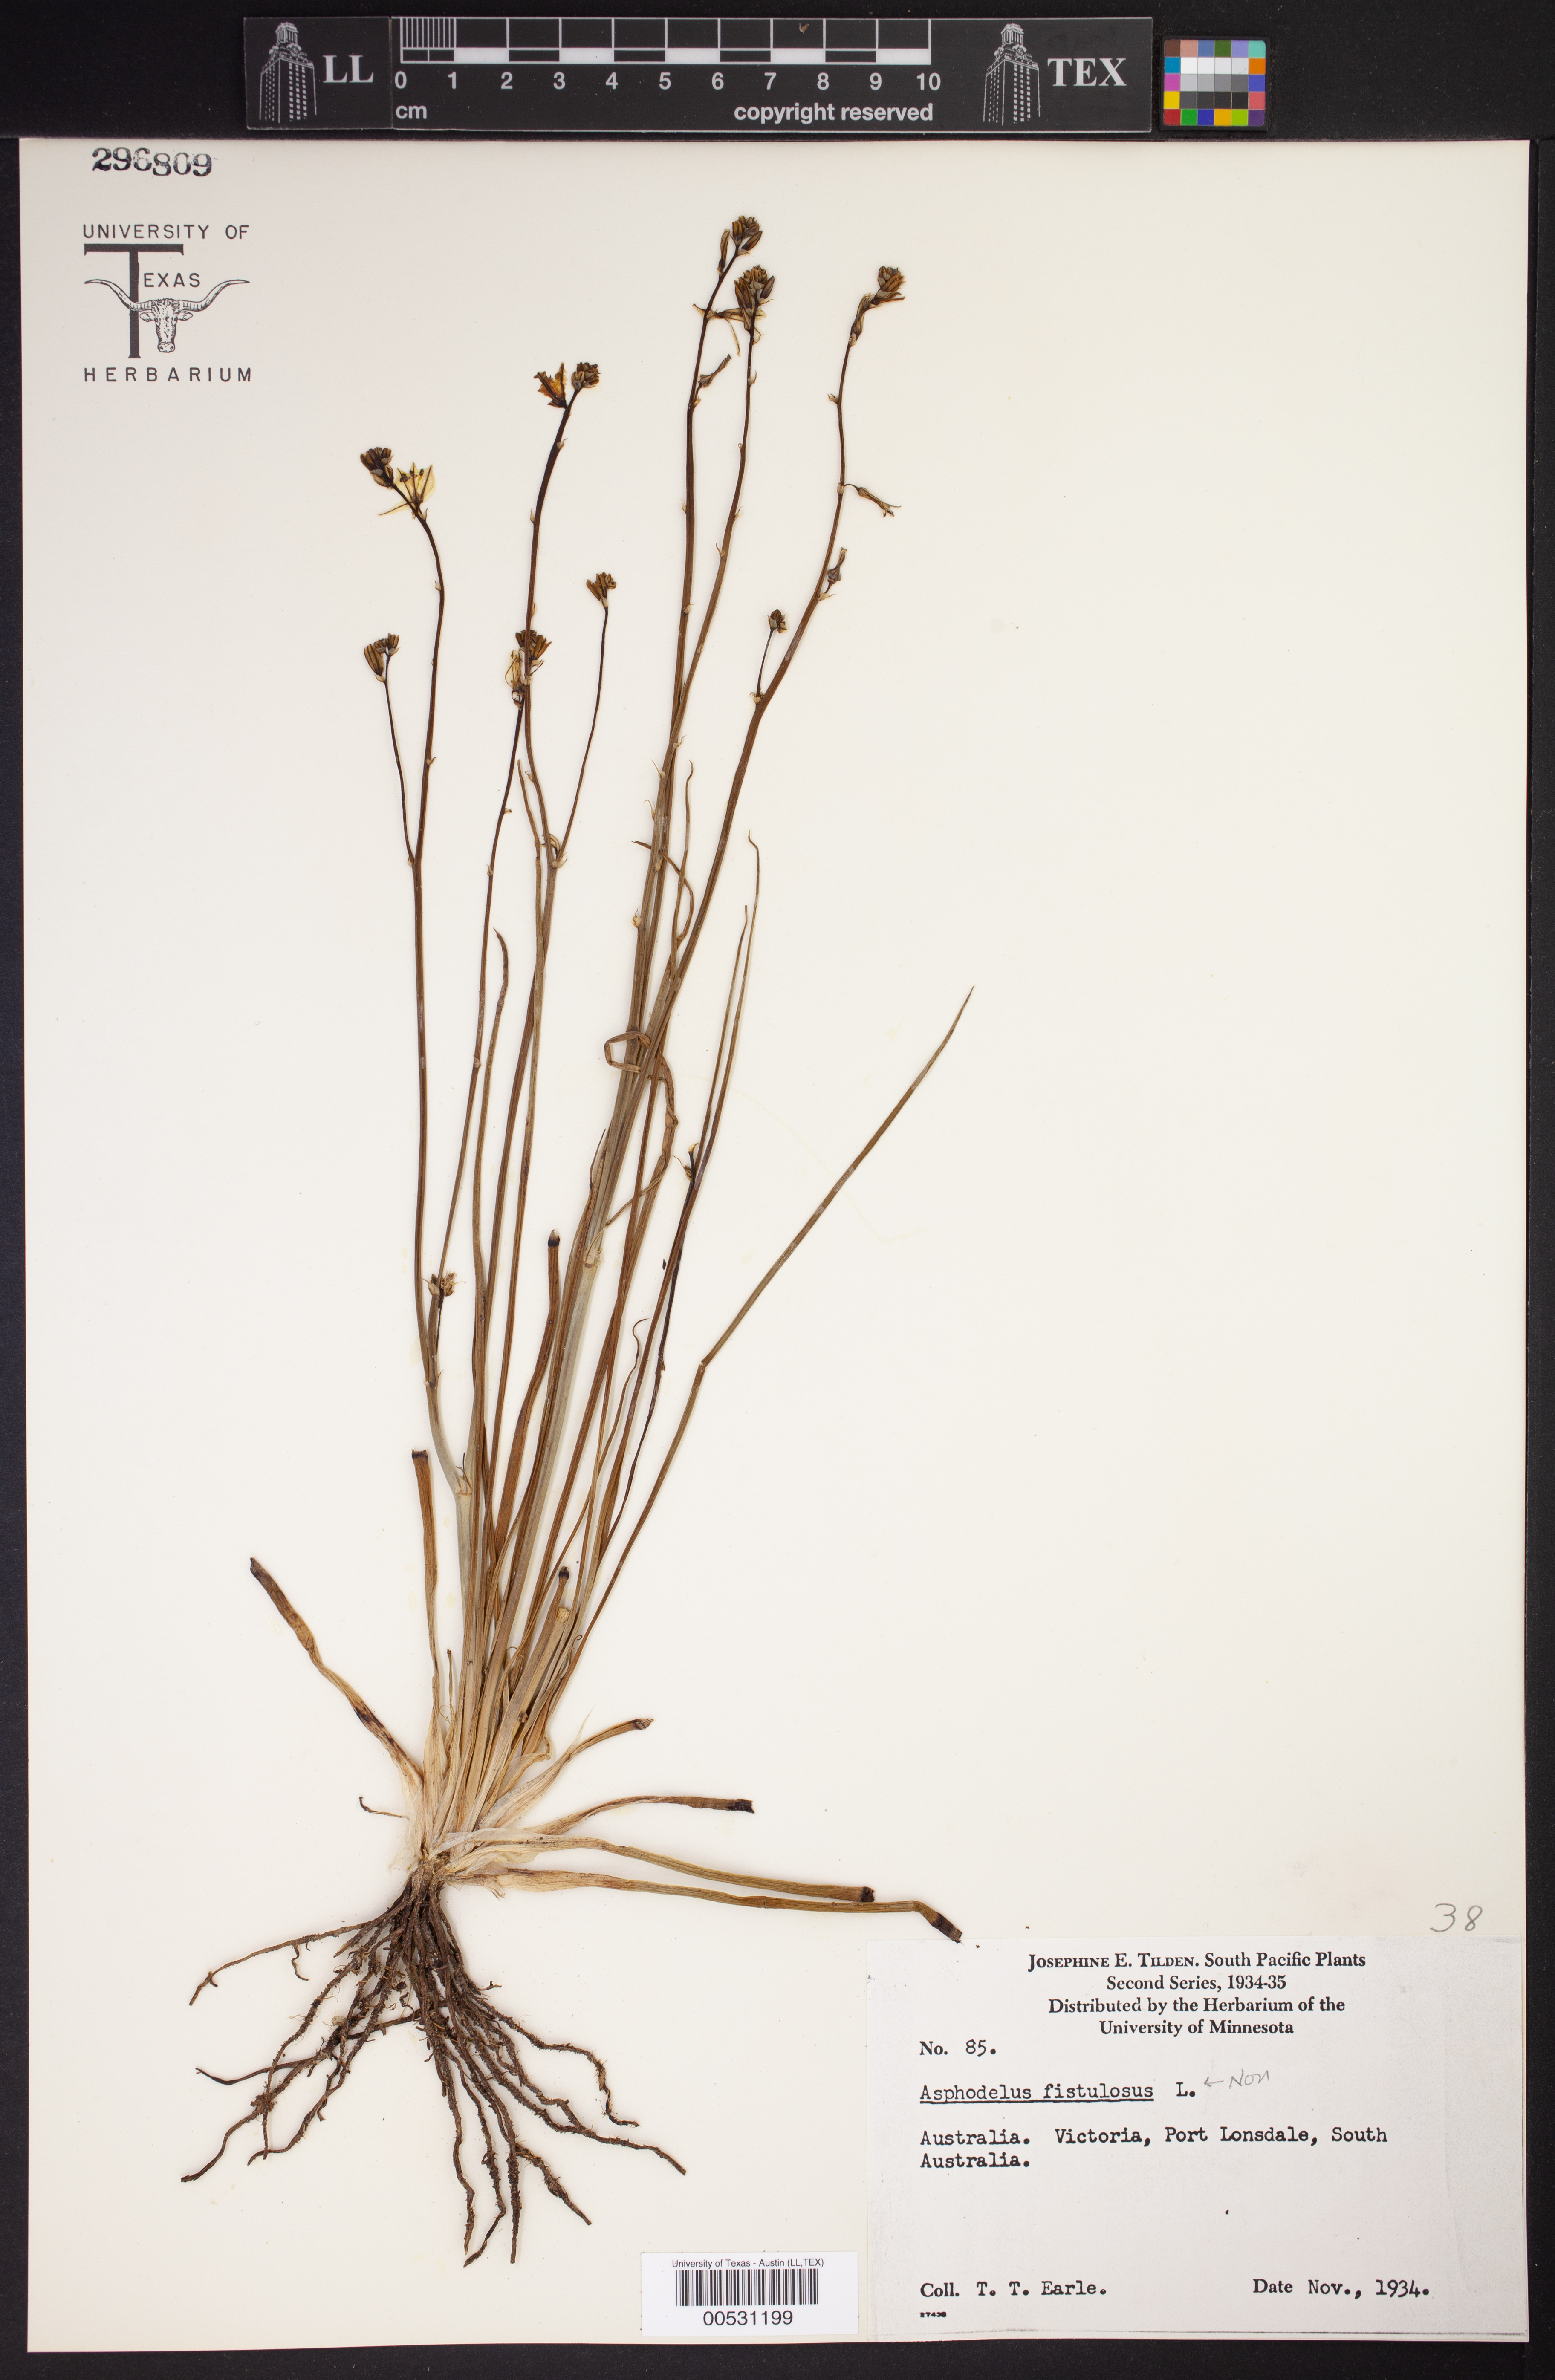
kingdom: Plantae
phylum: Tracheophyta
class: Liliopsida
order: Asparagales
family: Asphodelaceae
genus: Asphodelus
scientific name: Asphodelus fistulosus
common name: Onionweed
